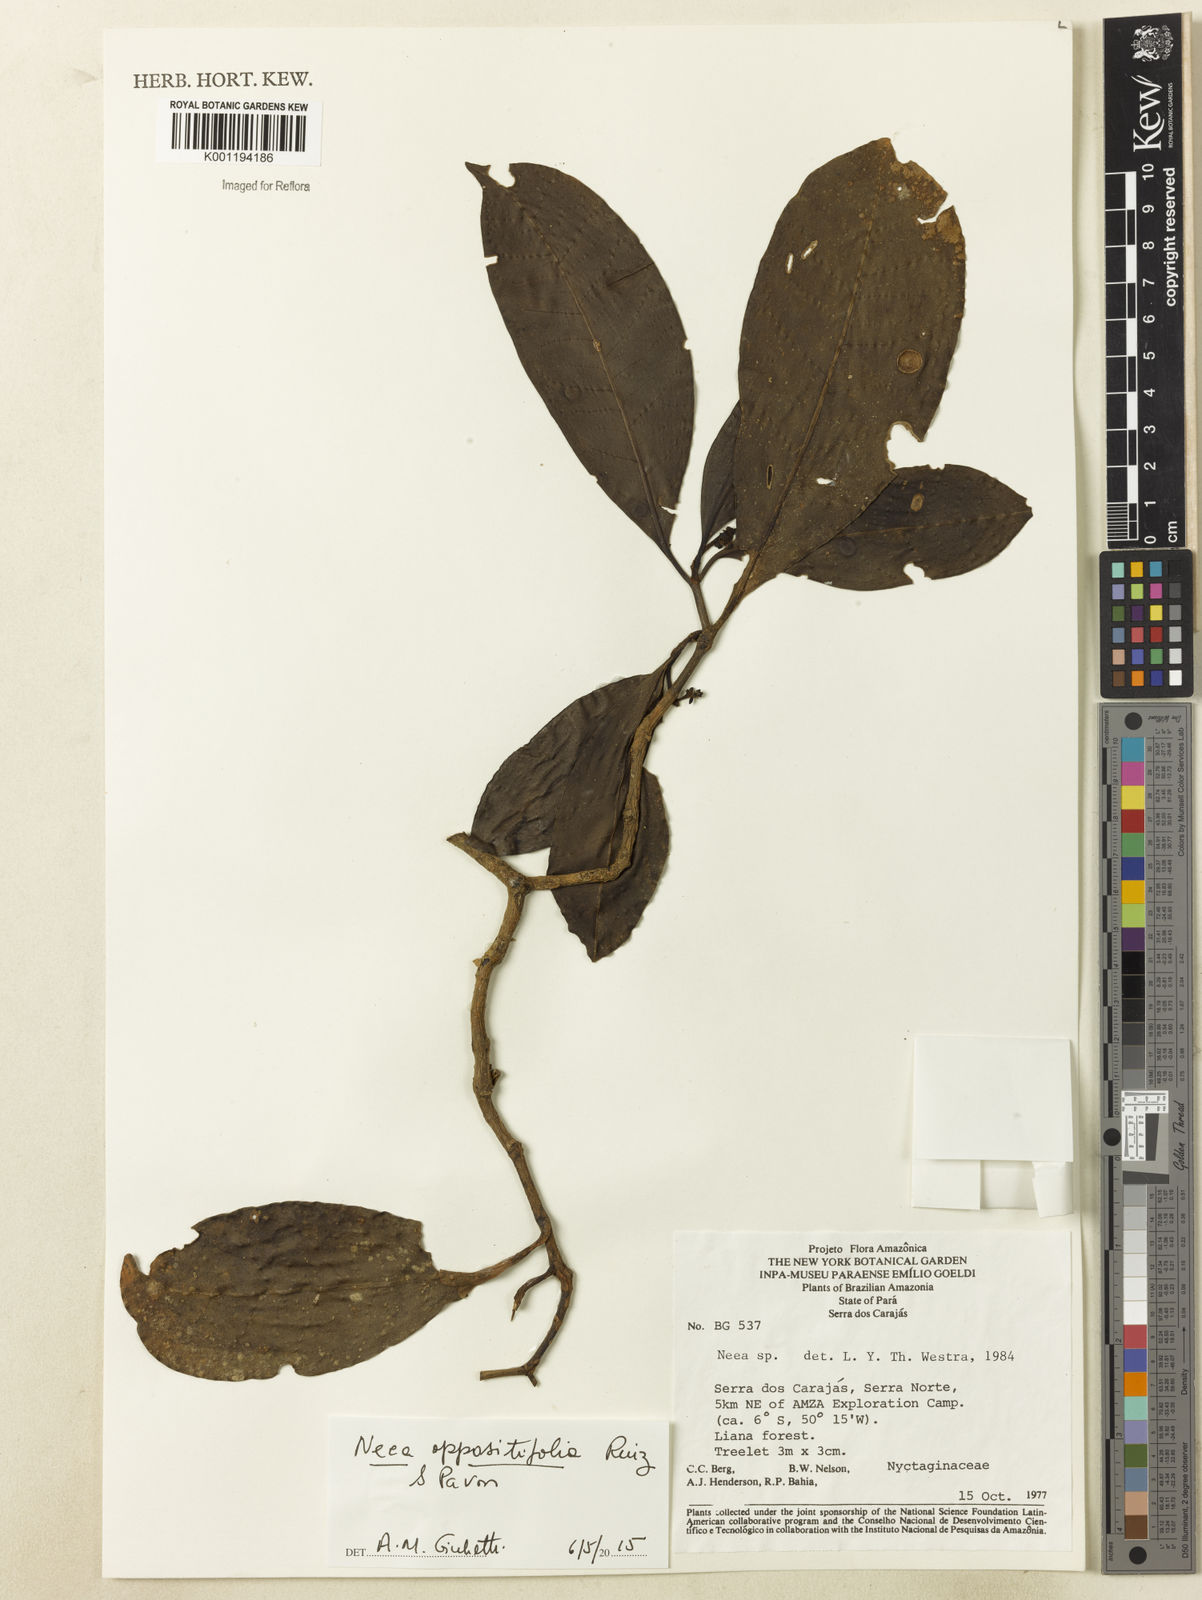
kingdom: Plantae
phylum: Tracheophyta
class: Magnoliopsida
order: Caryophyllales
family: Nyctaginaceae
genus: Neea
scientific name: Neea oppositifolia
